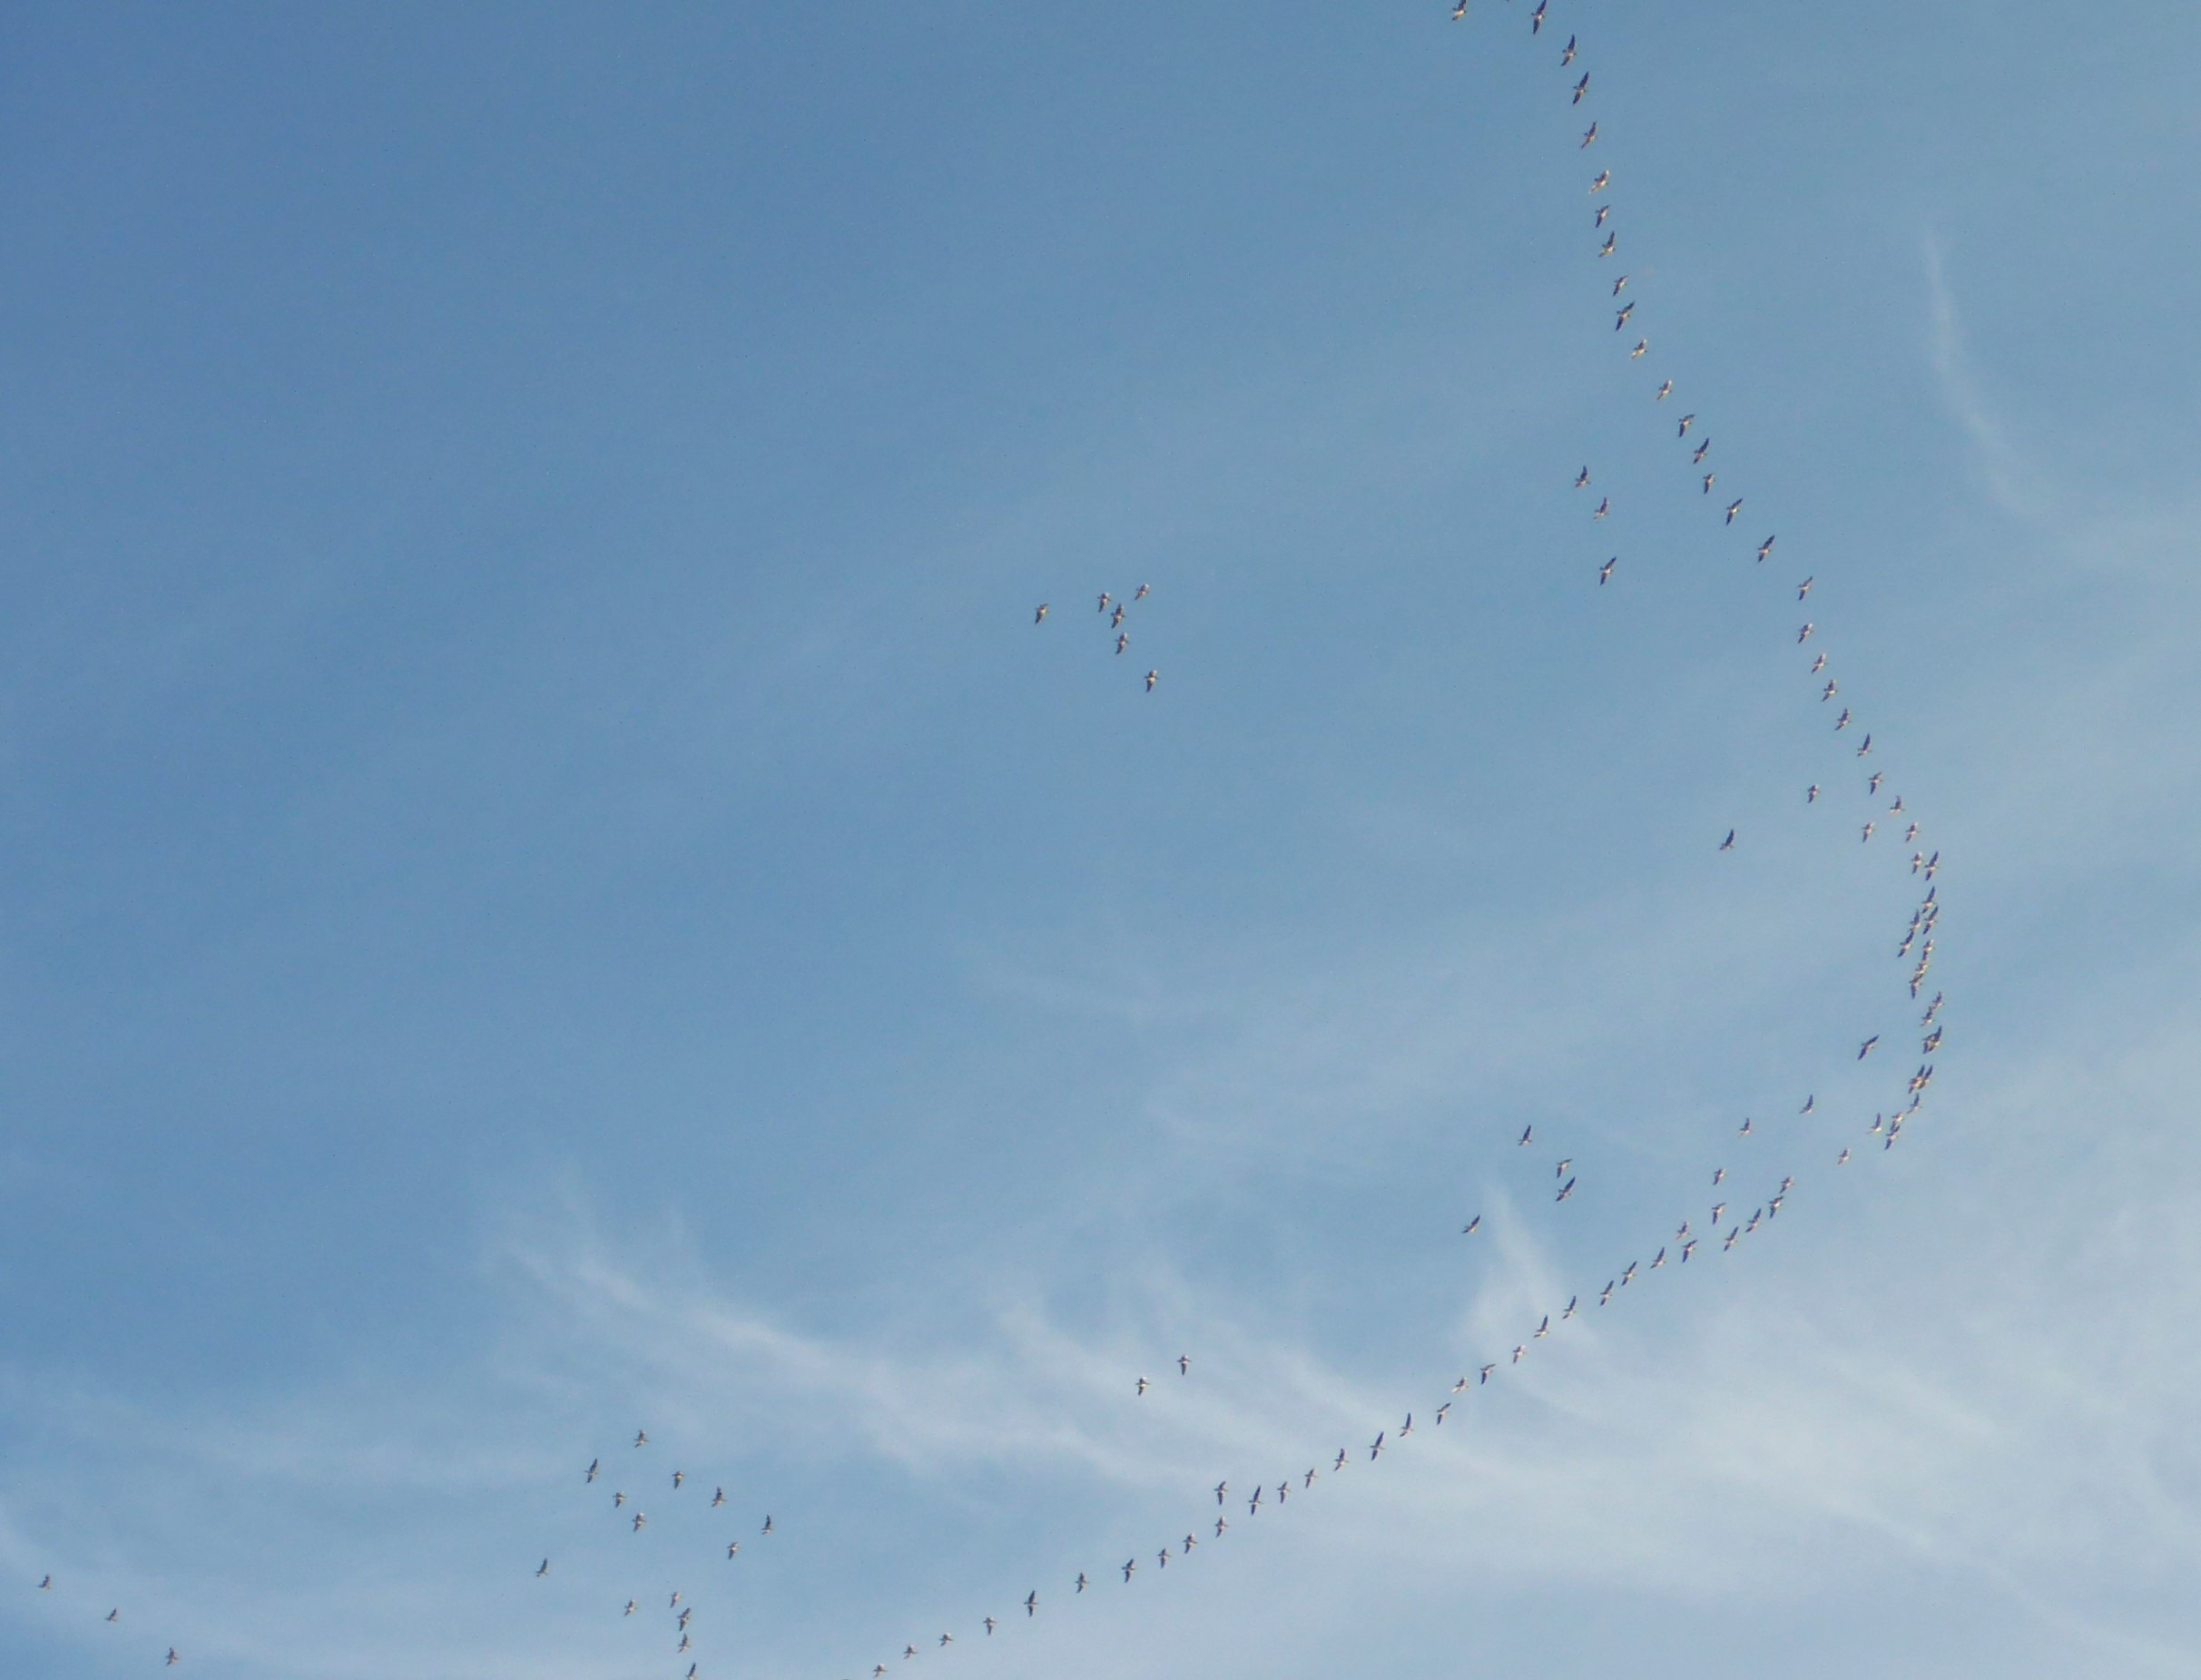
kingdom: Animalia
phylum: Chordata
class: Aves
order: Anseriformes
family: Anatidae
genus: Branta
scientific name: Branta leucopsis
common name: Bramgås
